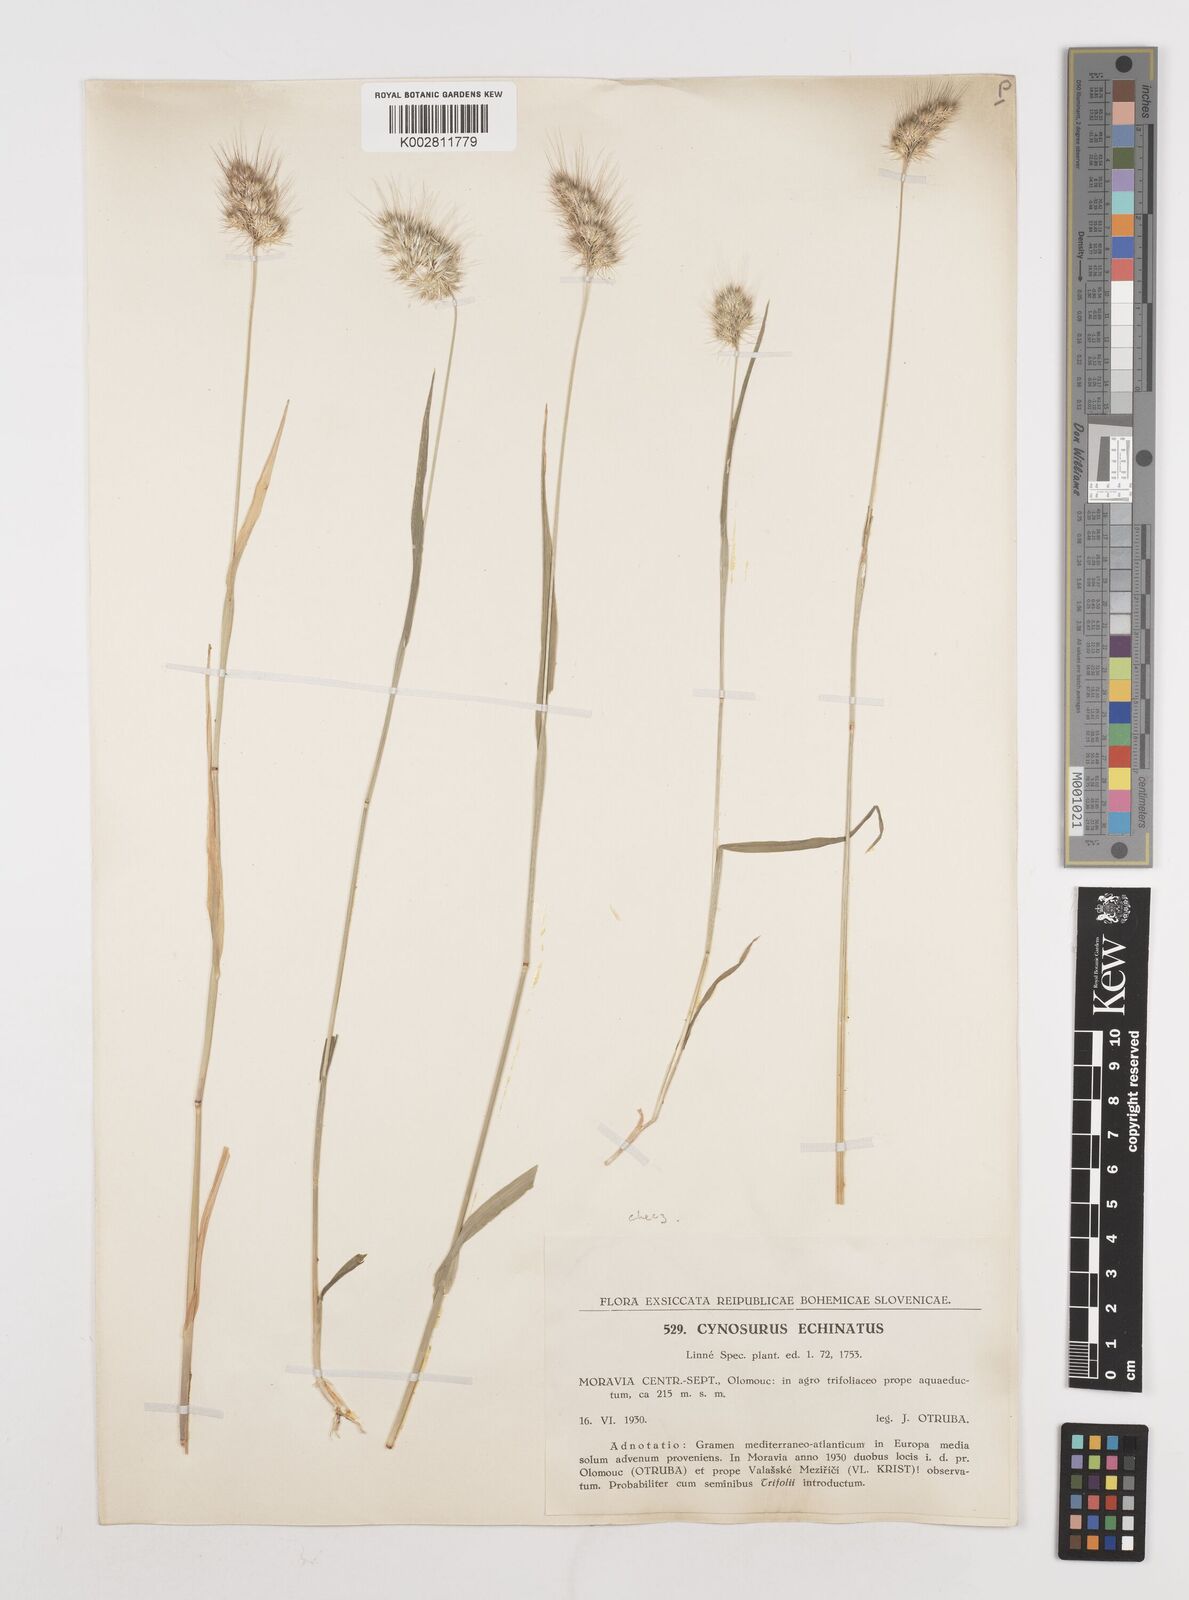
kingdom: Plantae
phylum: Tracheophyta
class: Liliopsida
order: Poales
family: Poaceae
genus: Cynosurus
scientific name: Cynosurus echinatus
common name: Rough dog's-tail
